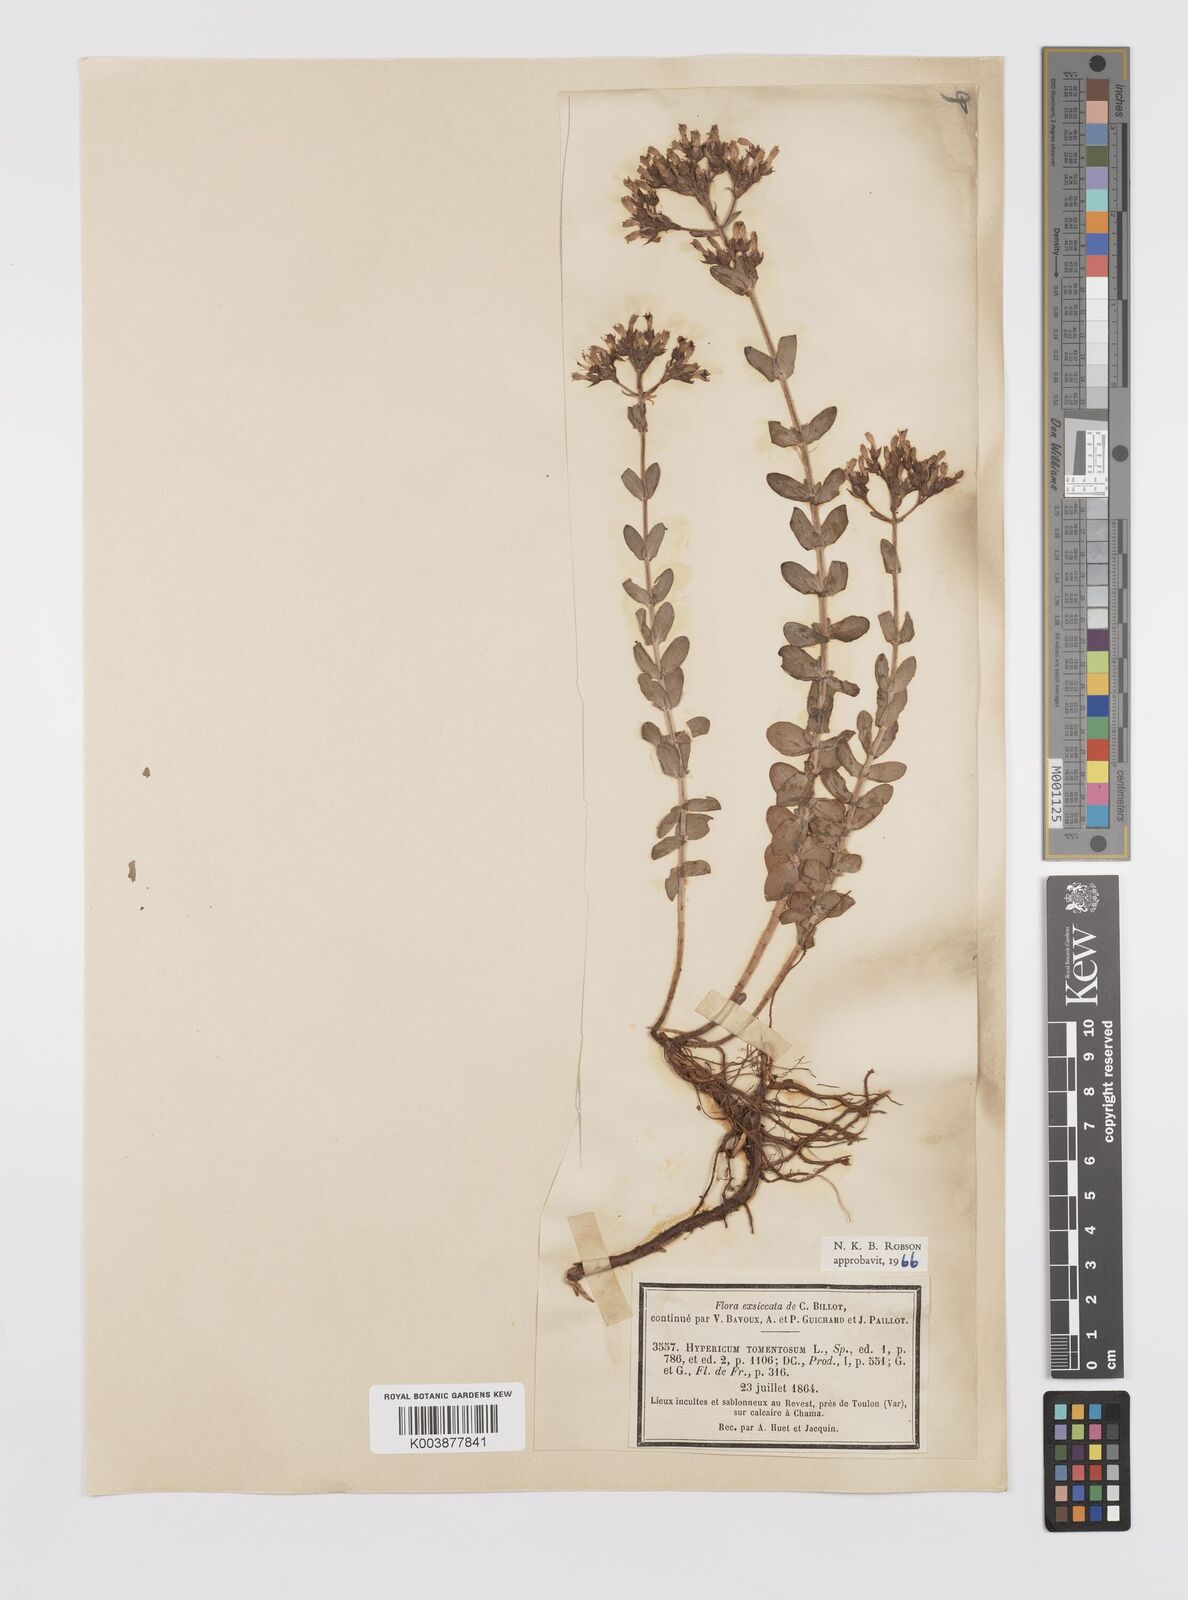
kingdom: Plantae
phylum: Tracheophyta
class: Magnoliopsida
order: Malpighiales
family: Hypericaceae
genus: Hypericum
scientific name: Hypericum tomentosum
